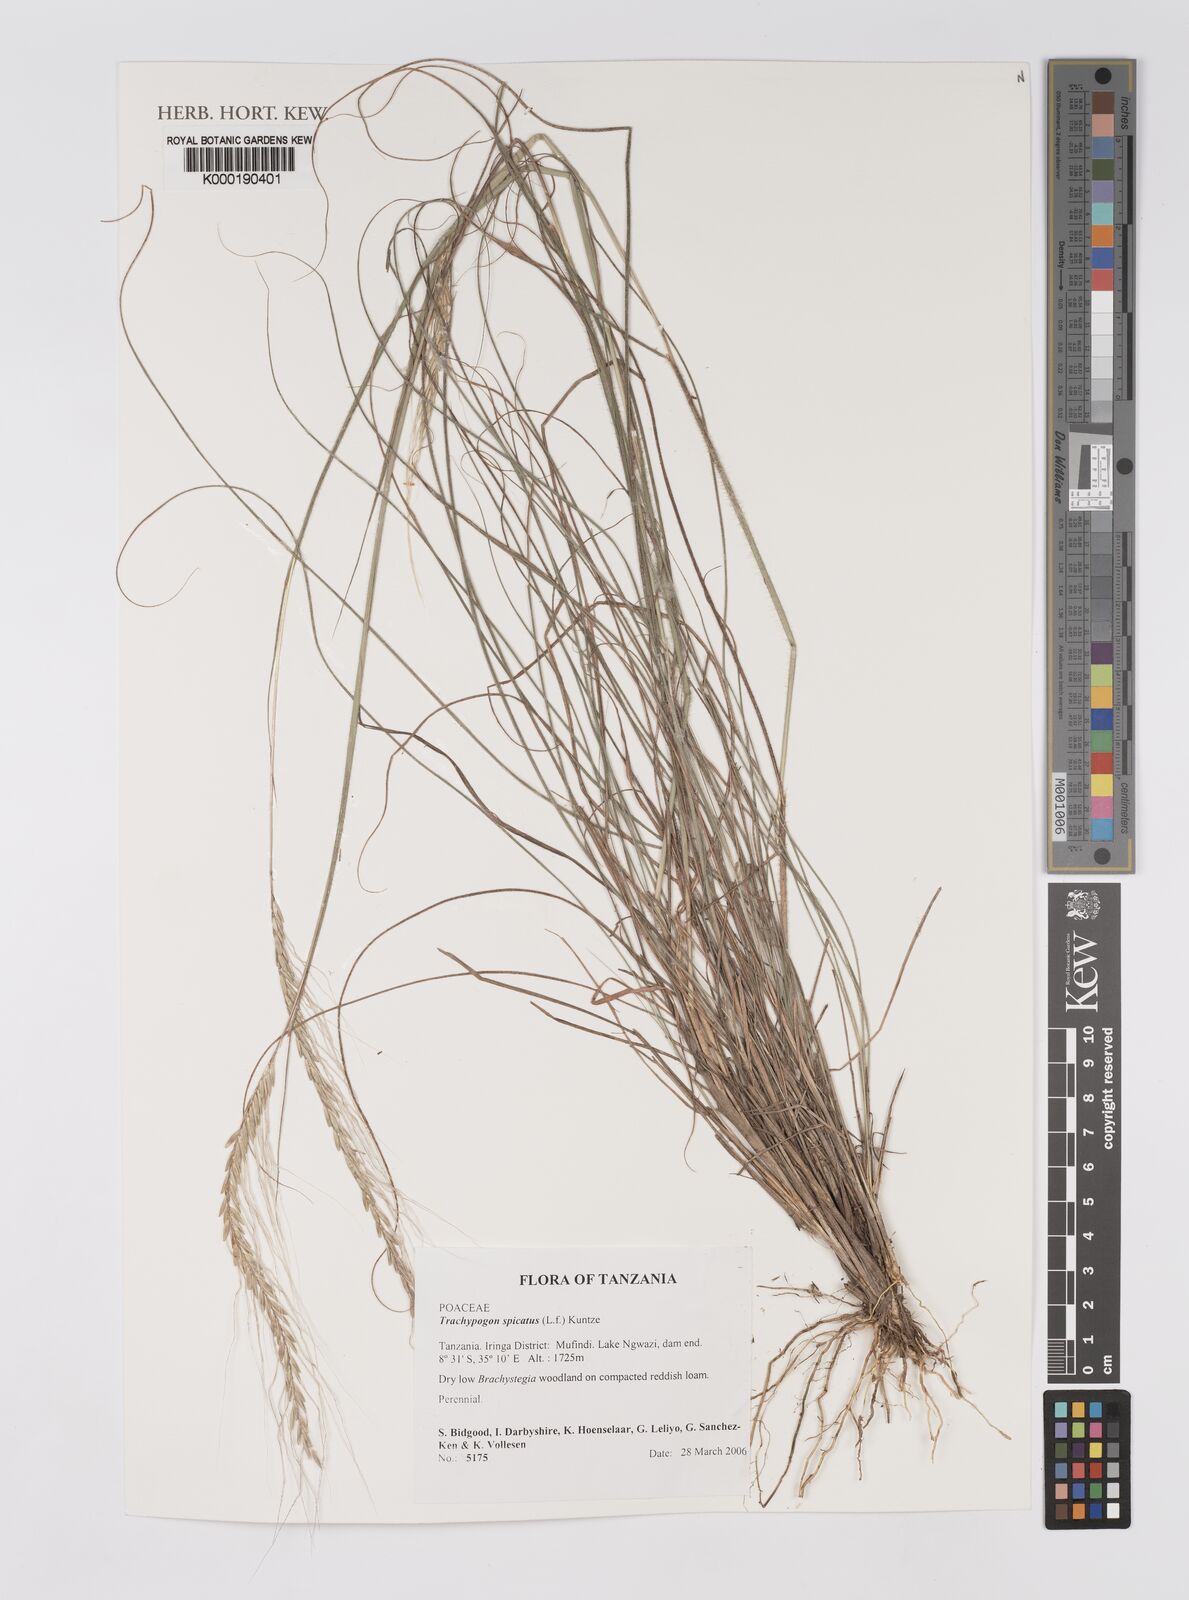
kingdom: Plantae
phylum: Tracheophyta
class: Liliopsida
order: Poales
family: Poaceae
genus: Trachypogon
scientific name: Trachypogon spicatus
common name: Crinkle-awn
